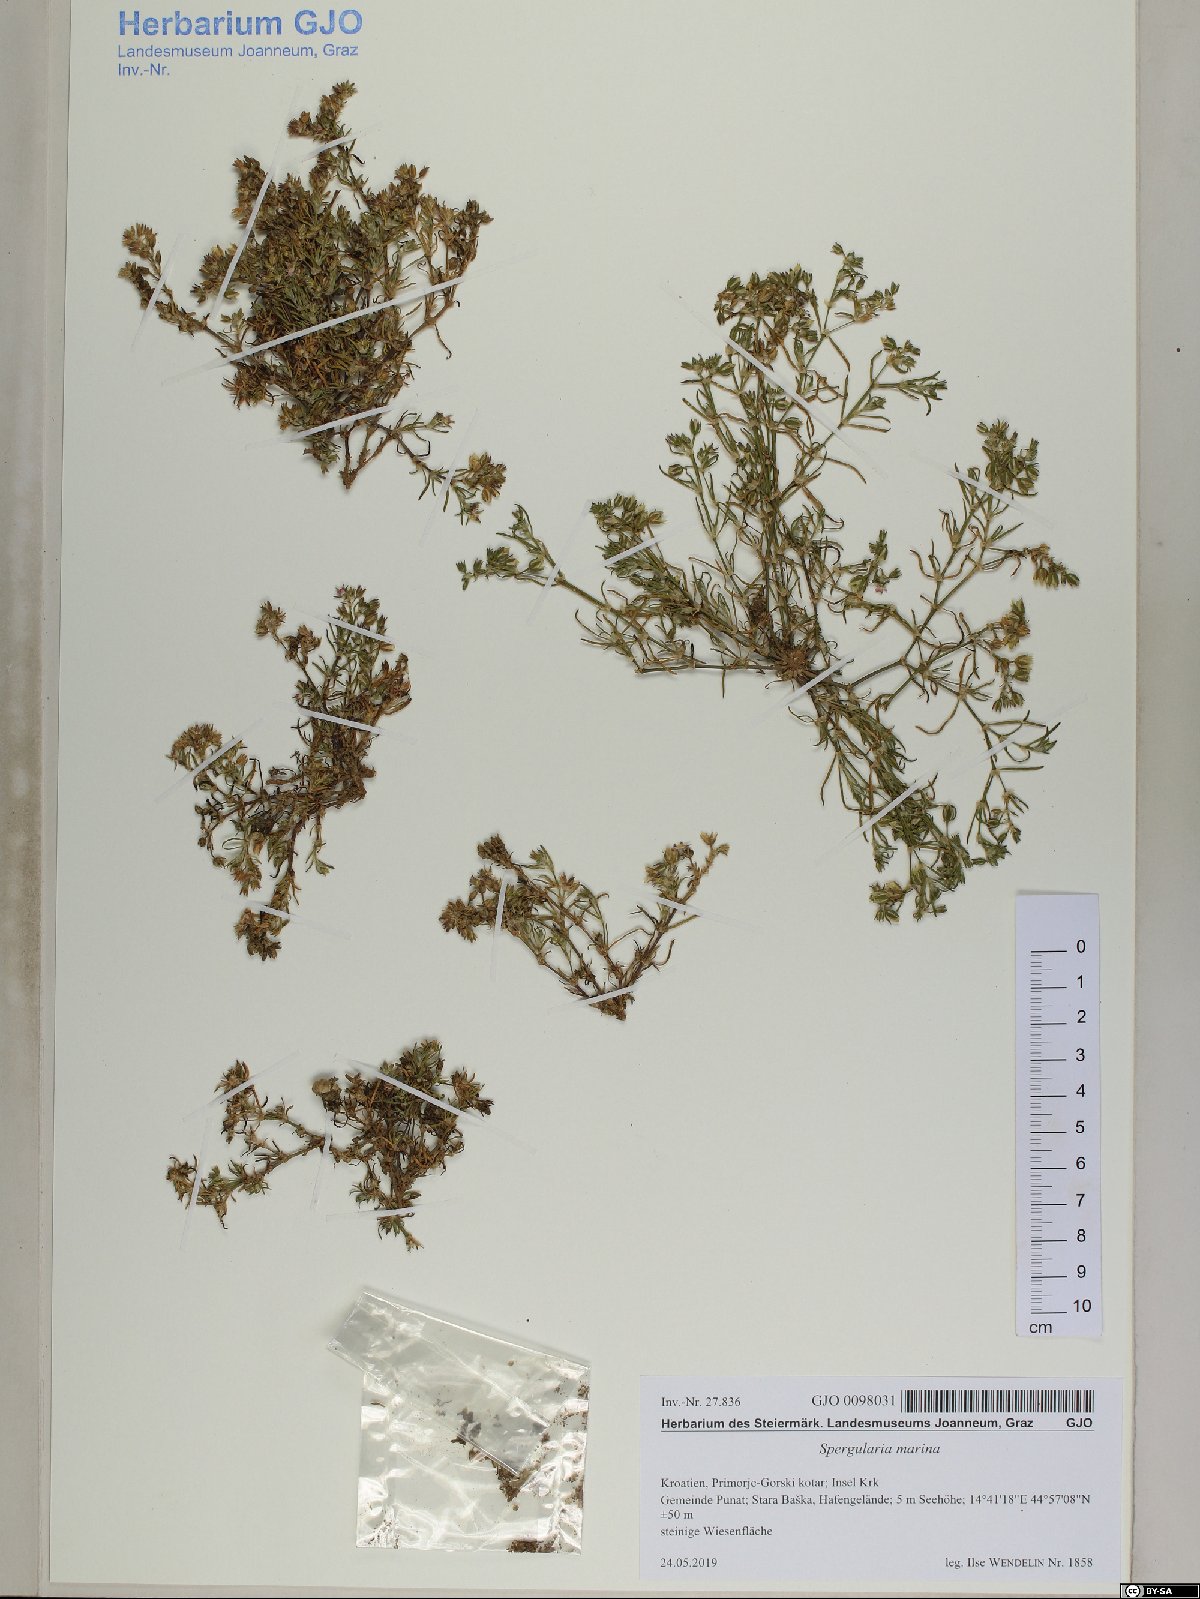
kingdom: Plantae
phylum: Tracheophyta
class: Magnoliopsida
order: Caryophyllales
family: Caryophyllaceae
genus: Spergularia
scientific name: Spergularia marina
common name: Lesser sea-spurrey
